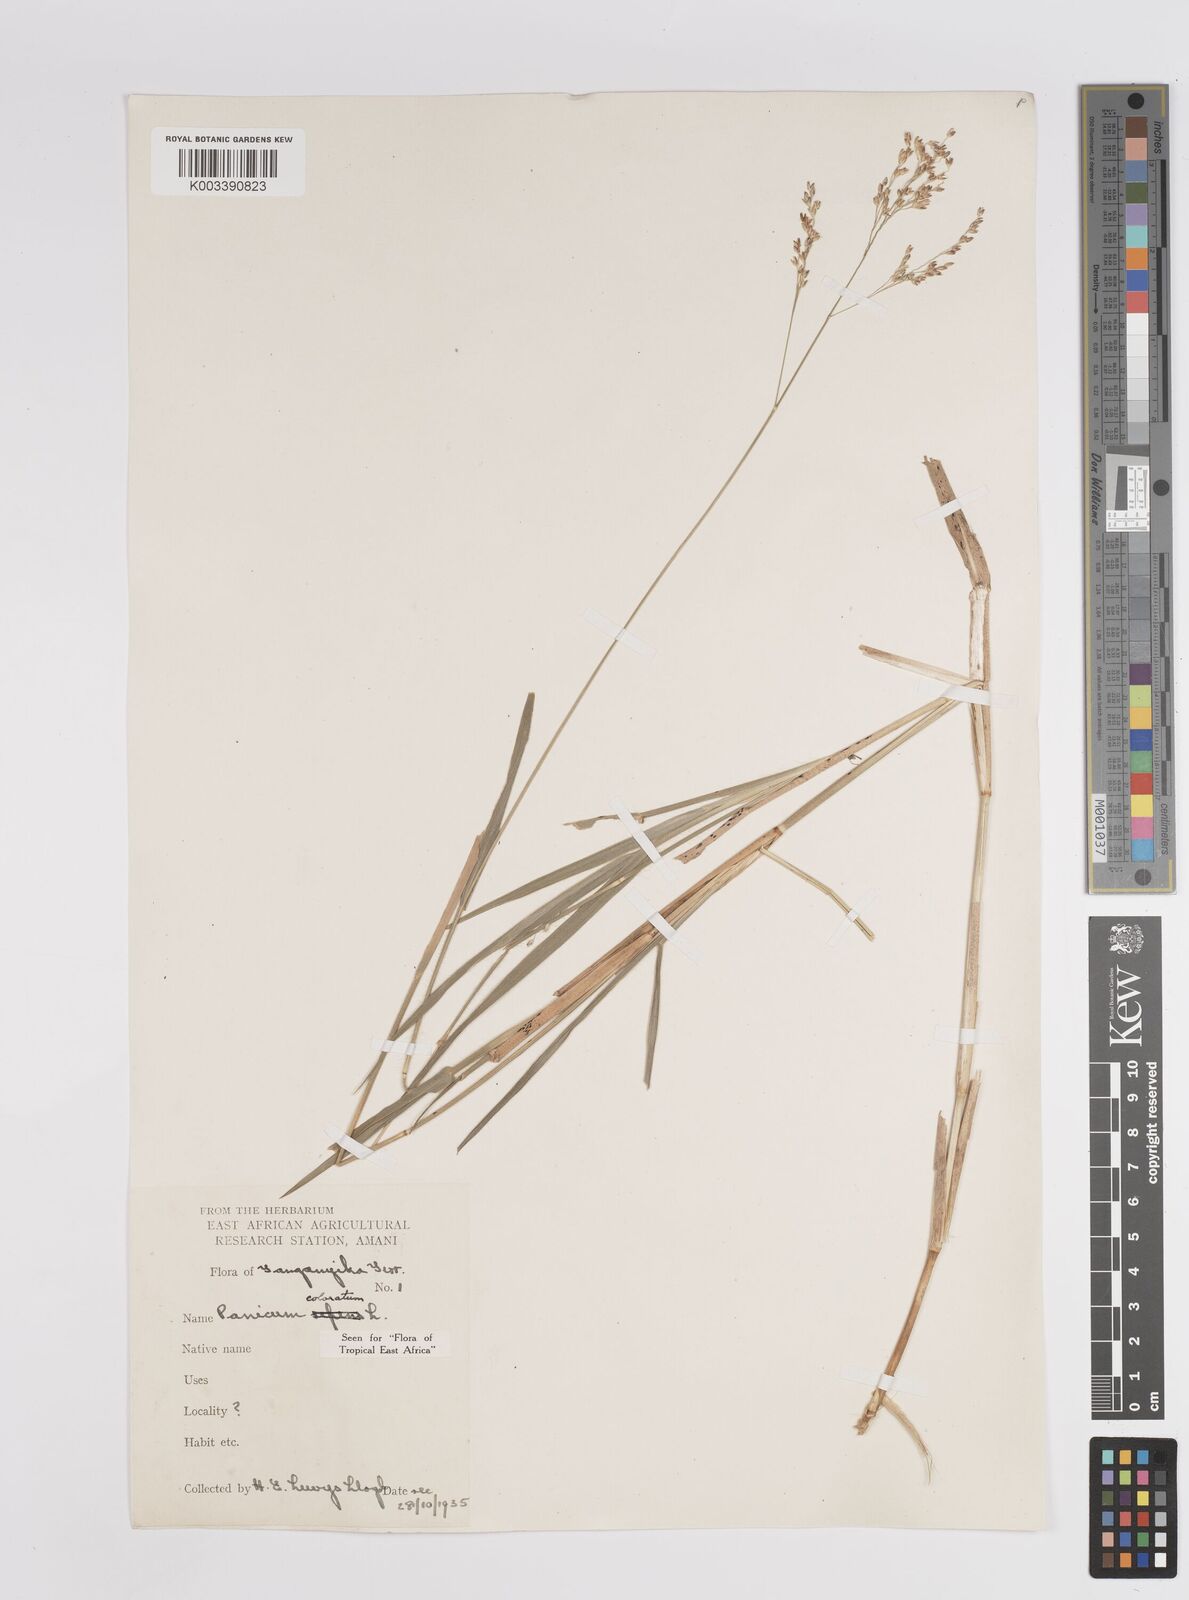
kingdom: Plantae
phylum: Tracheophyta
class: Liliopsida
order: Poales
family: Poaceae
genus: Panicum
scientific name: Panicum coloratum
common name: Kleingrass
